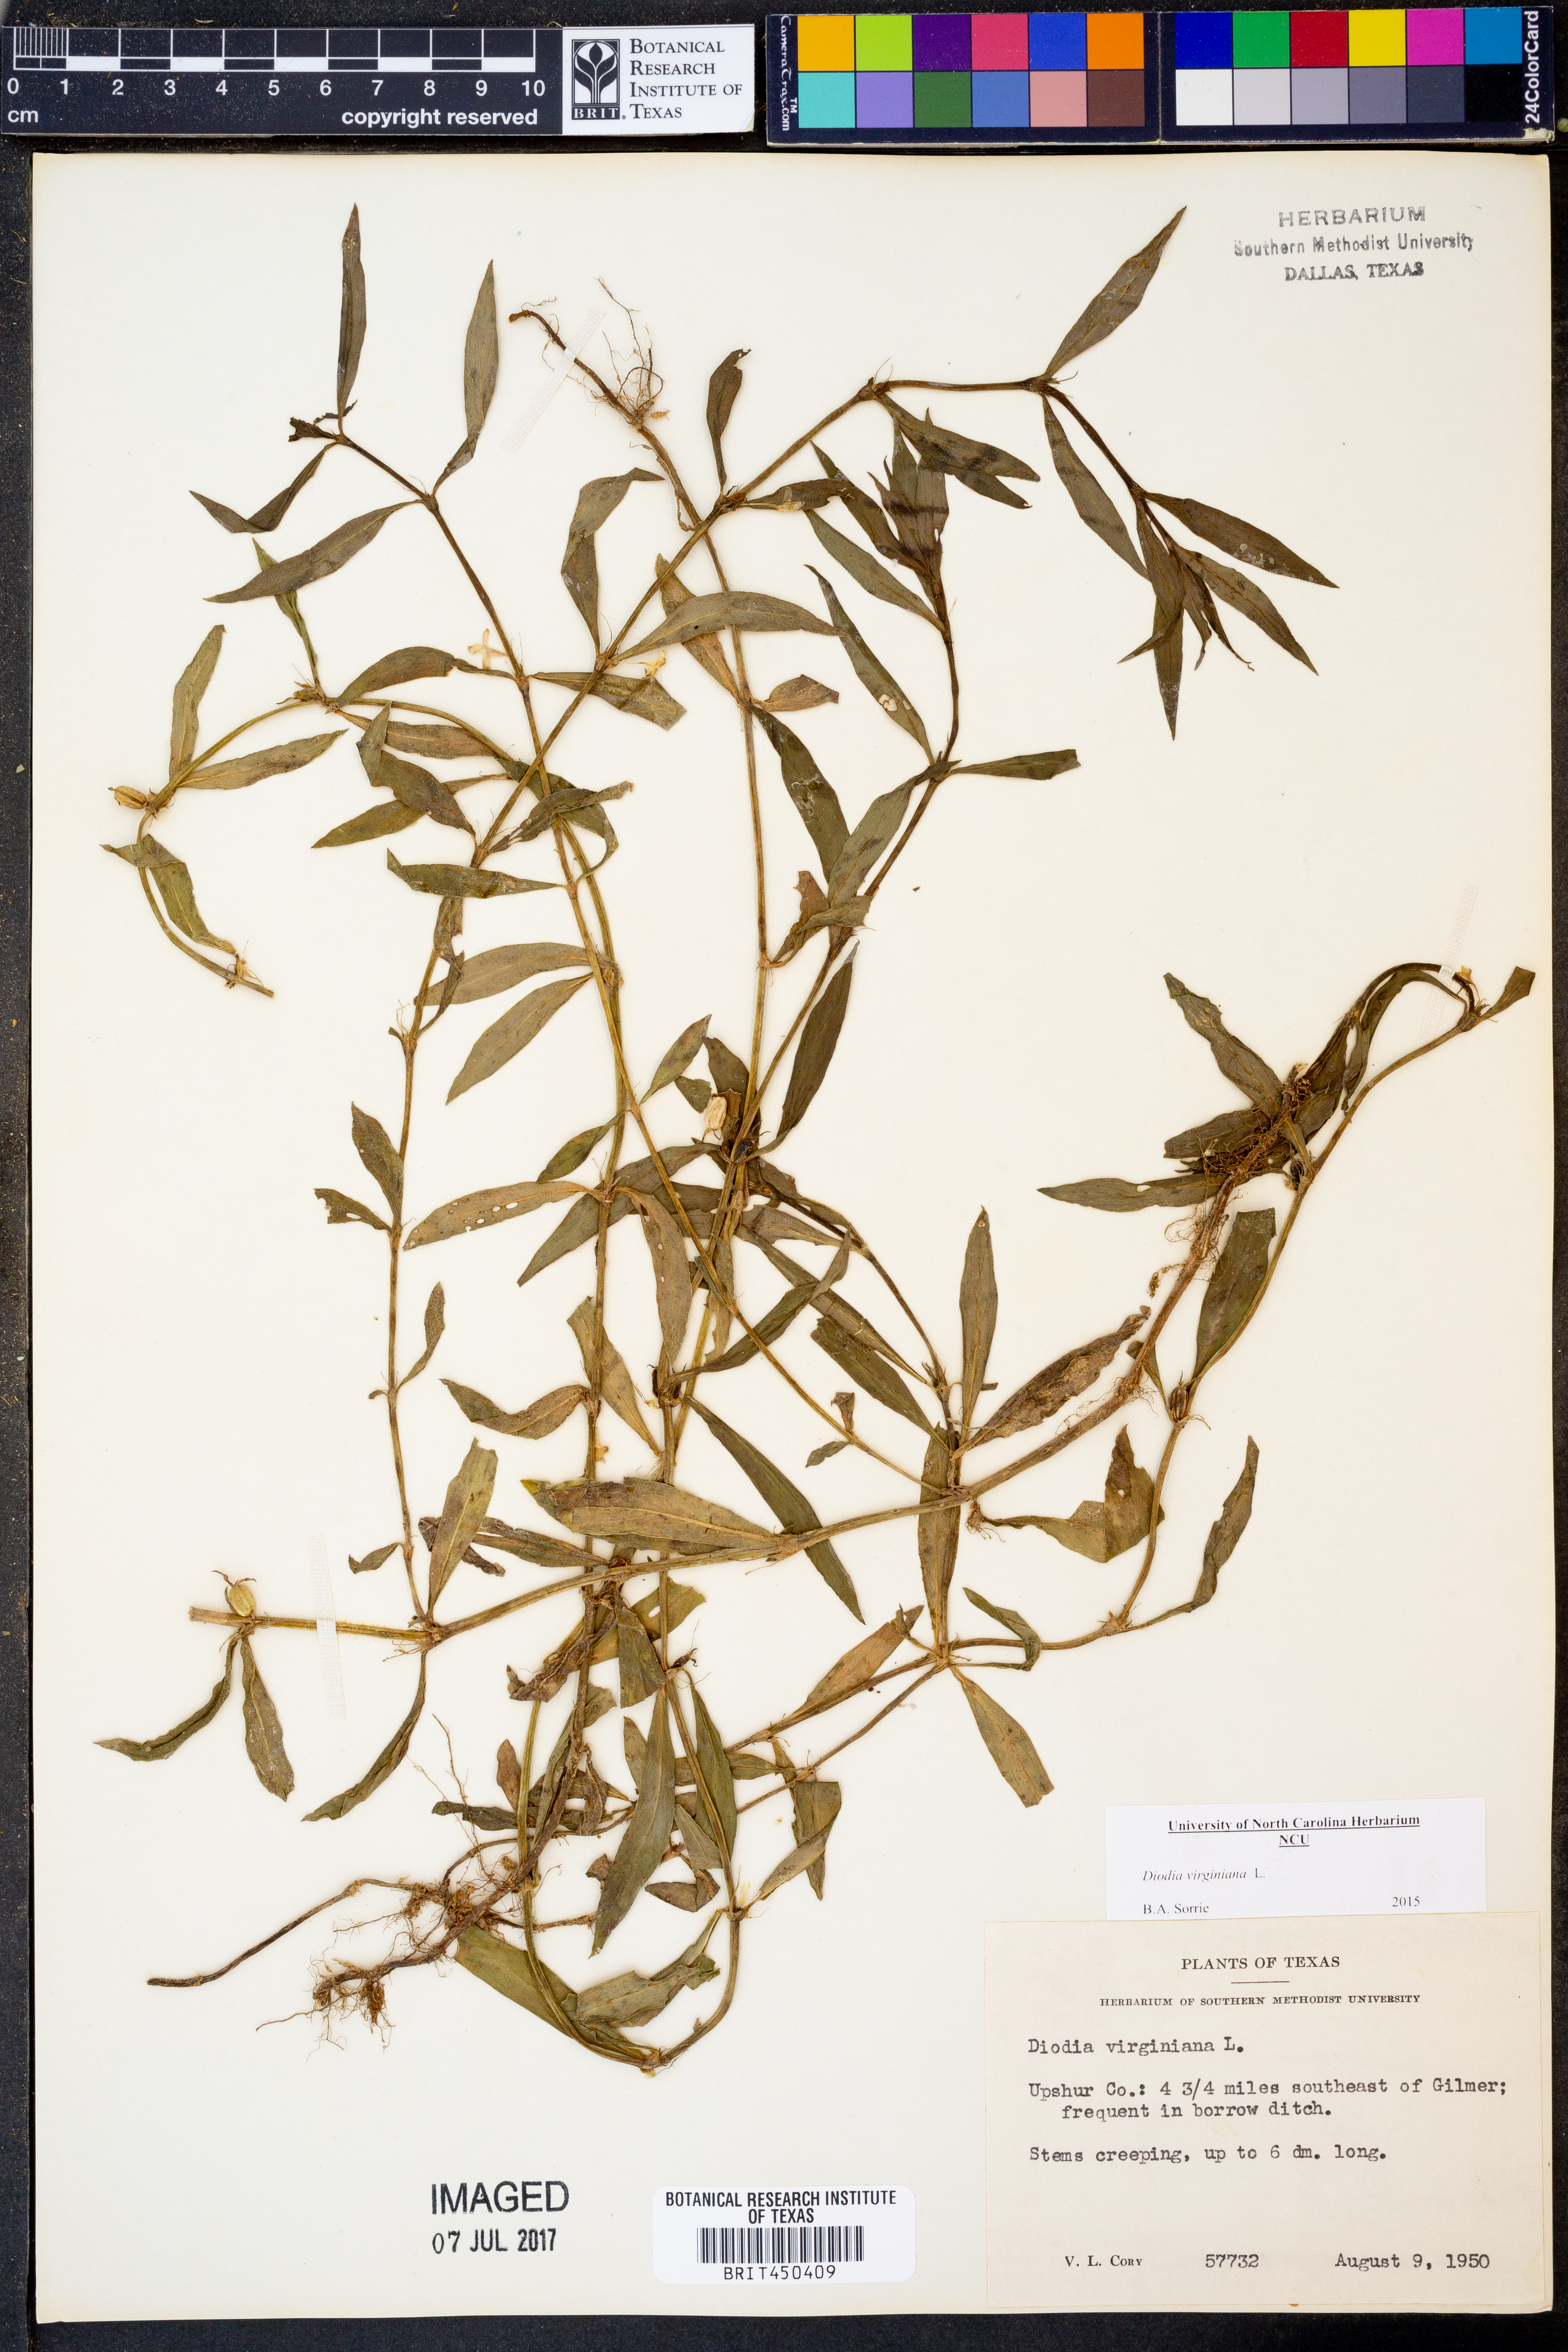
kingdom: Plantae
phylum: Tracheophyta
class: Magnoliopsida
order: Gentianales
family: Rubiaceae
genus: Diodia
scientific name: Diodia virginiana
